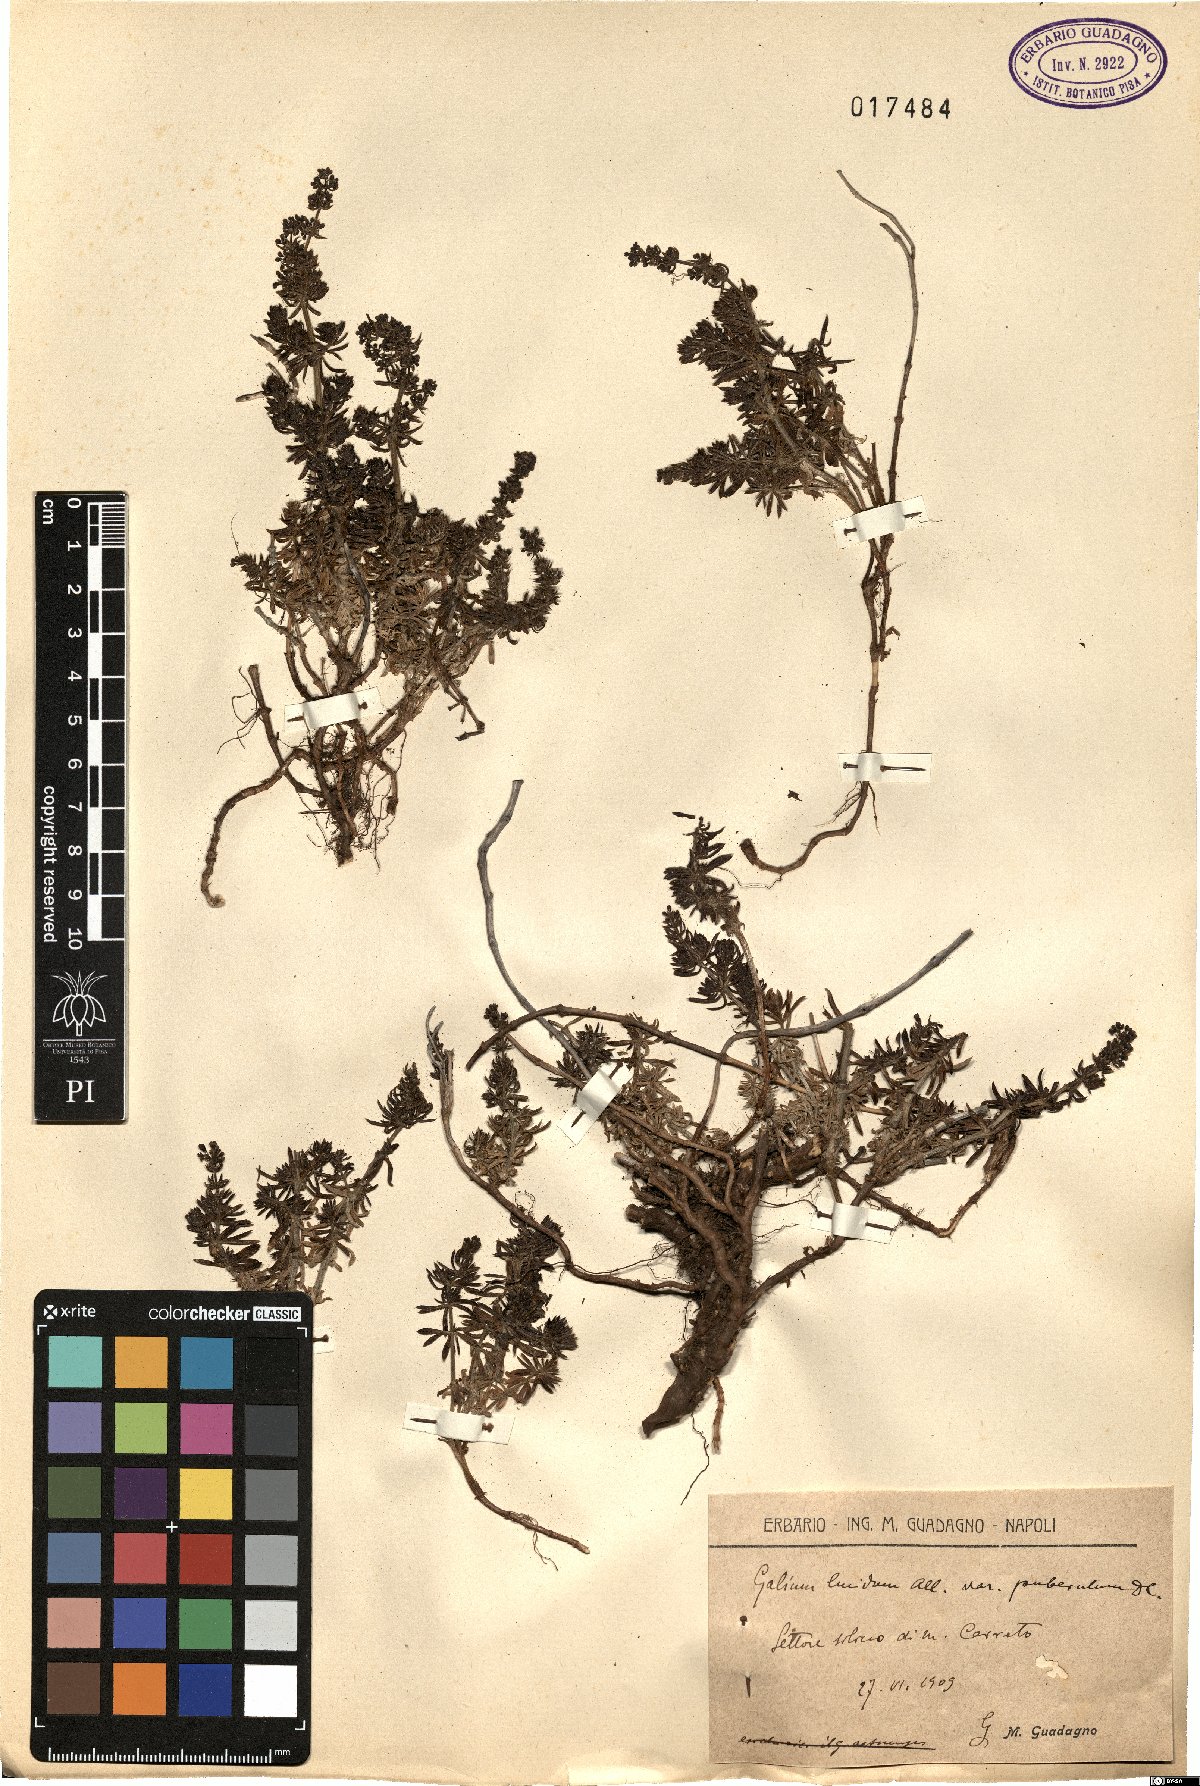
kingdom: Plantae
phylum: Tracheophyta
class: Magnoliopsida
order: Gentianales
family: Rubiaceae
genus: Galium
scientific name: Galium lucidum
